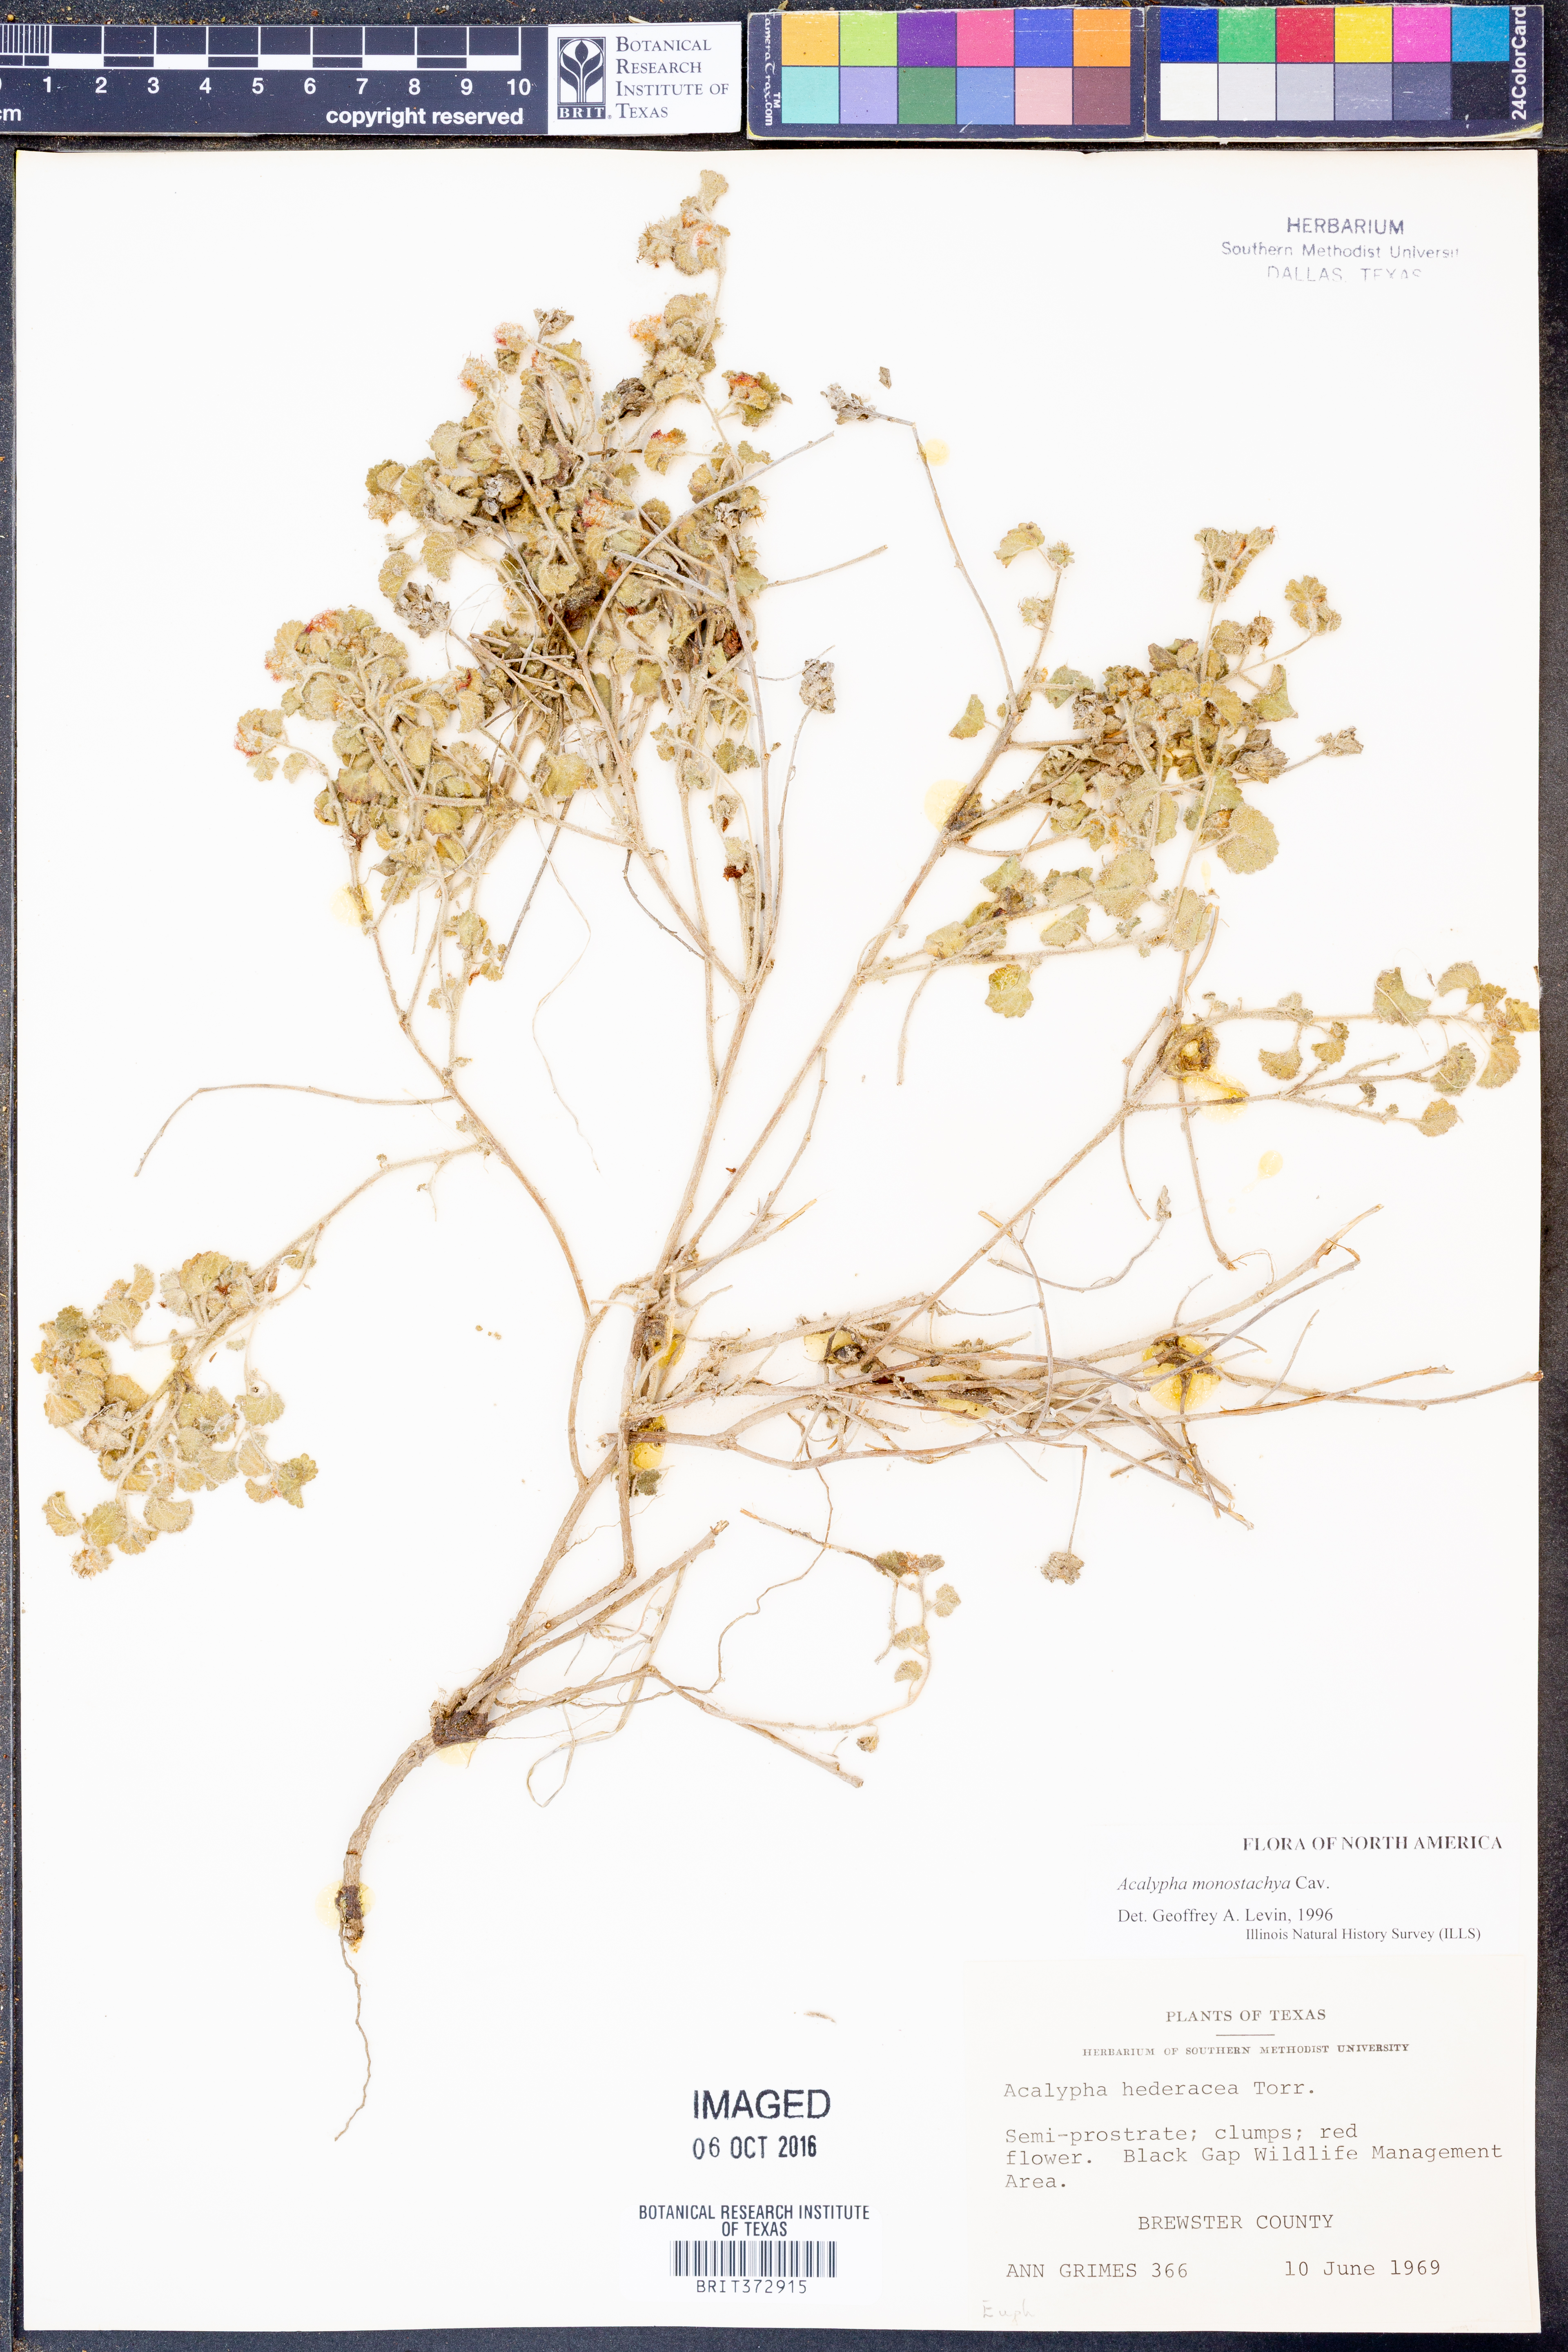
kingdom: Plantae
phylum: Tracheophyta
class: Magnoliopsida
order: Malpighiales
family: Euphorbiaceae
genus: Acalypha
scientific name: Acalypha monostachya
